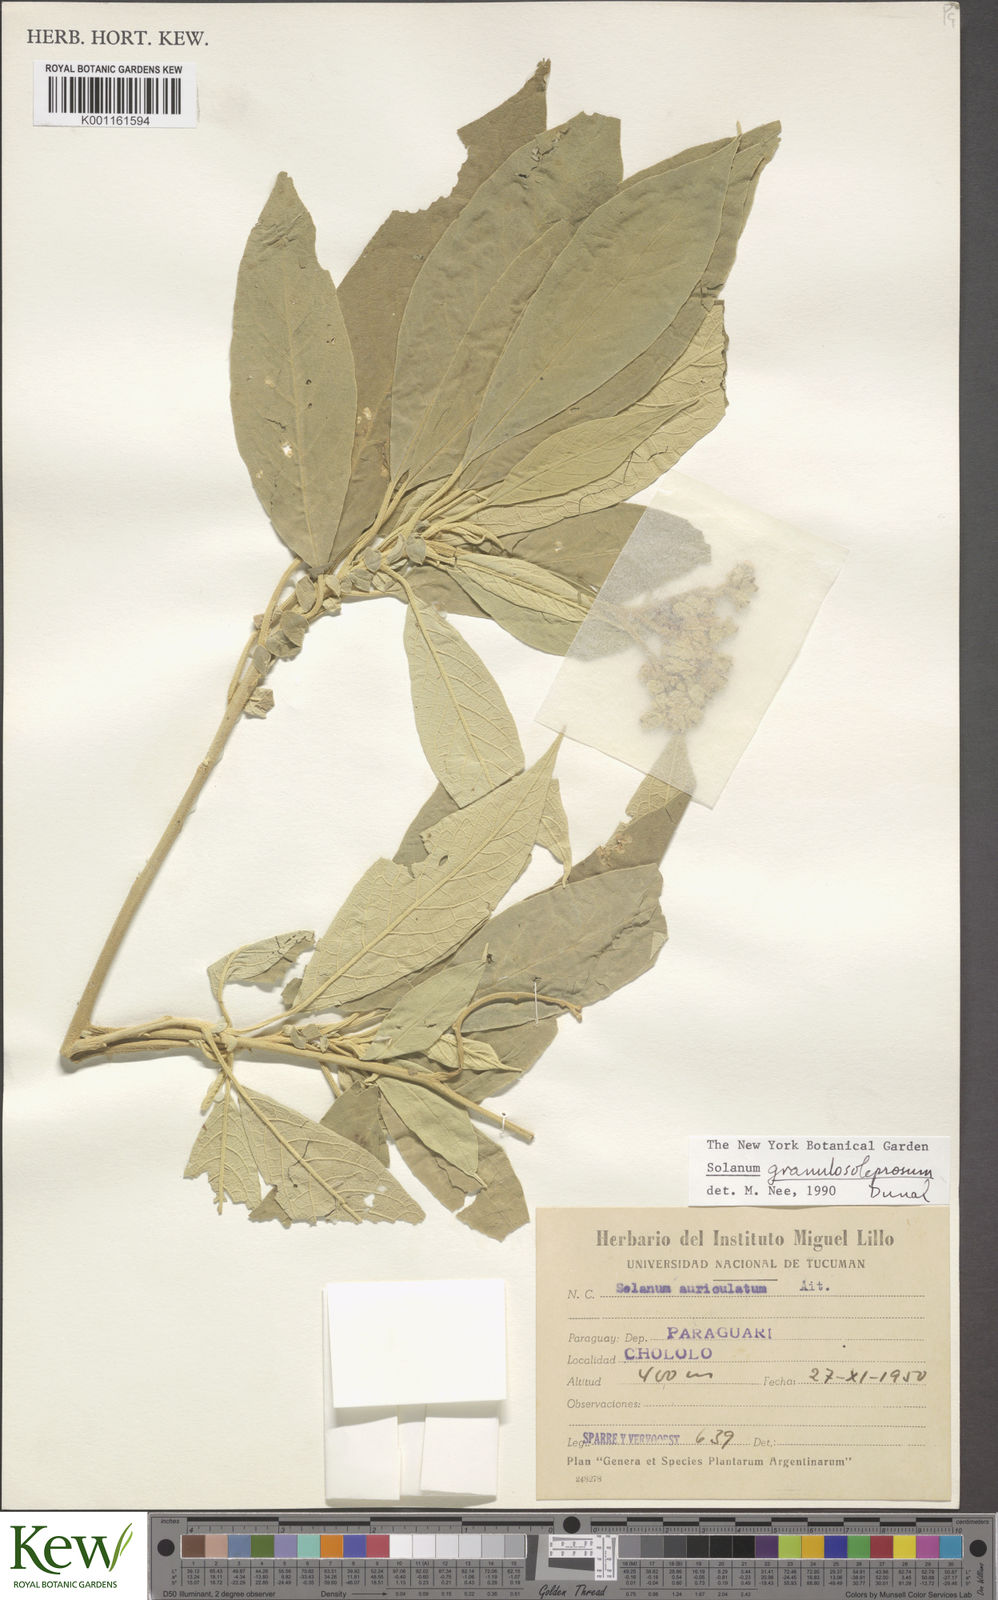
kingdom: Plantae
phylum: Tracheophyta
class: Magnoliopsida
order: Solanales
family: Solanaceae
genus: Solanum
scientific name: Solanum granulosoleprosum
